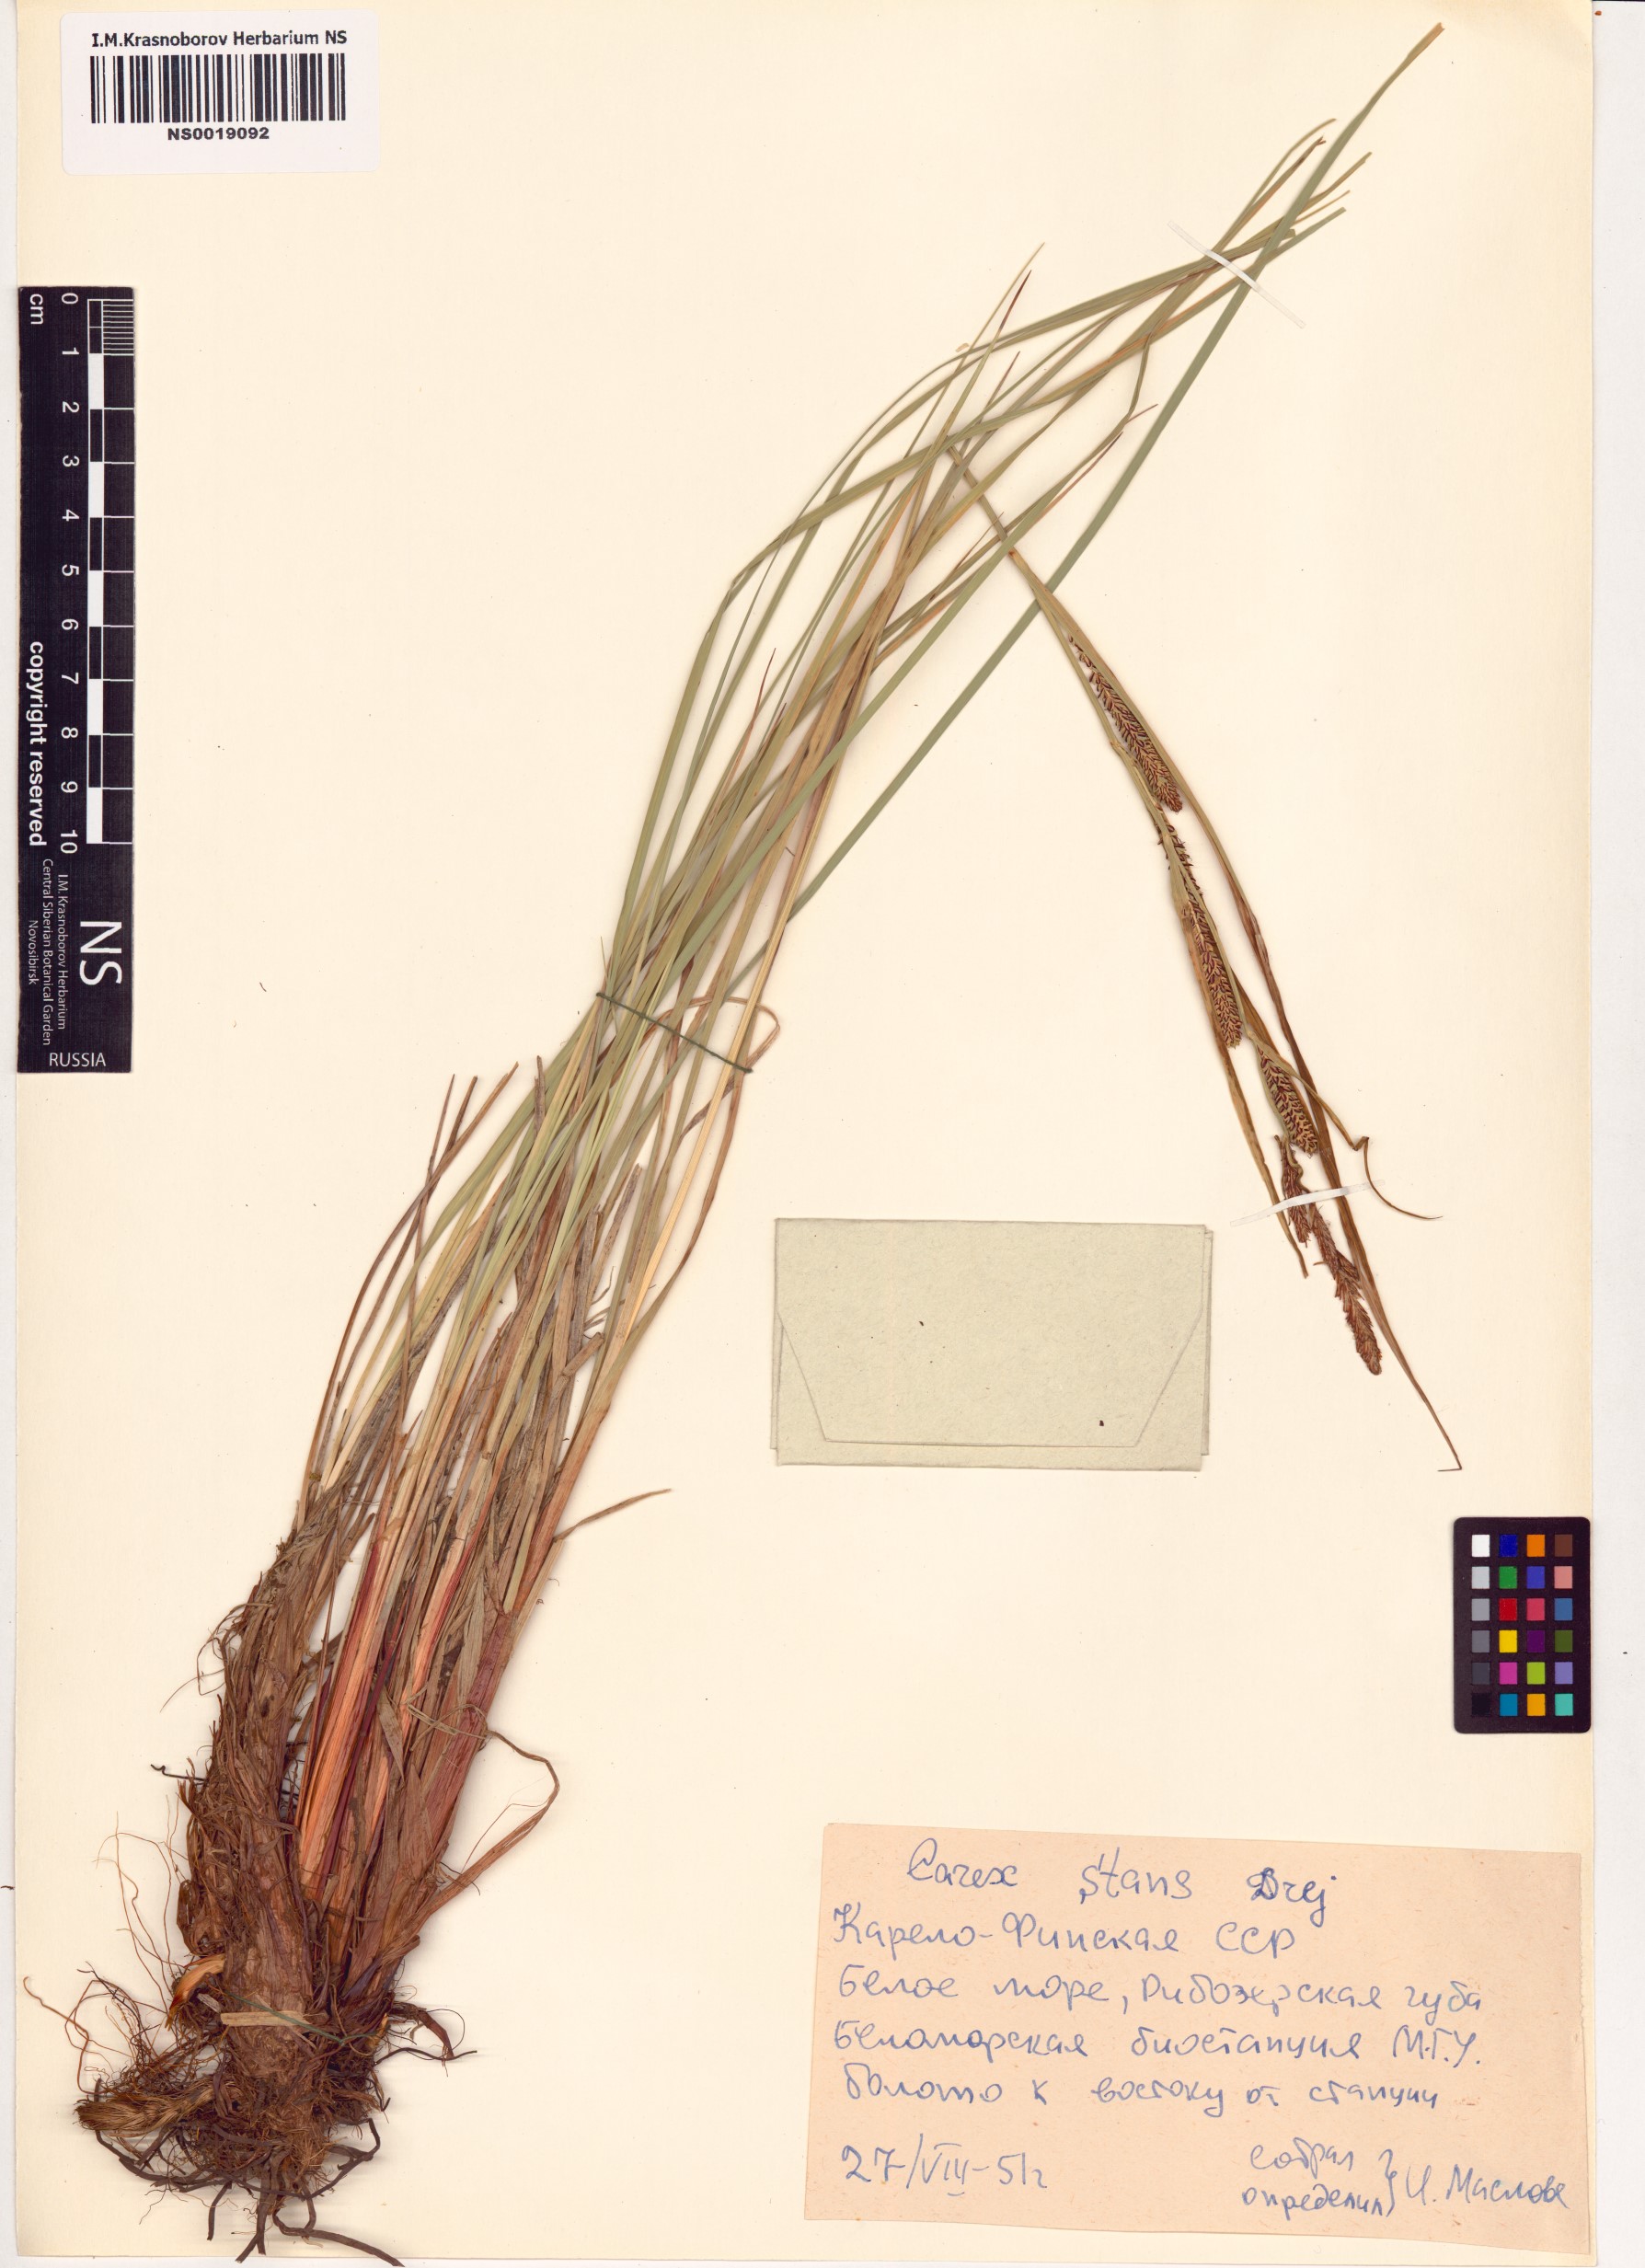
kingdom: Plantae
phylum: Tracheophyta
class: Liliopsida
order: Poales
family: Cyperaceae
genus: Carex
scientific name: Carex aquatilis
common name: Water sedge
